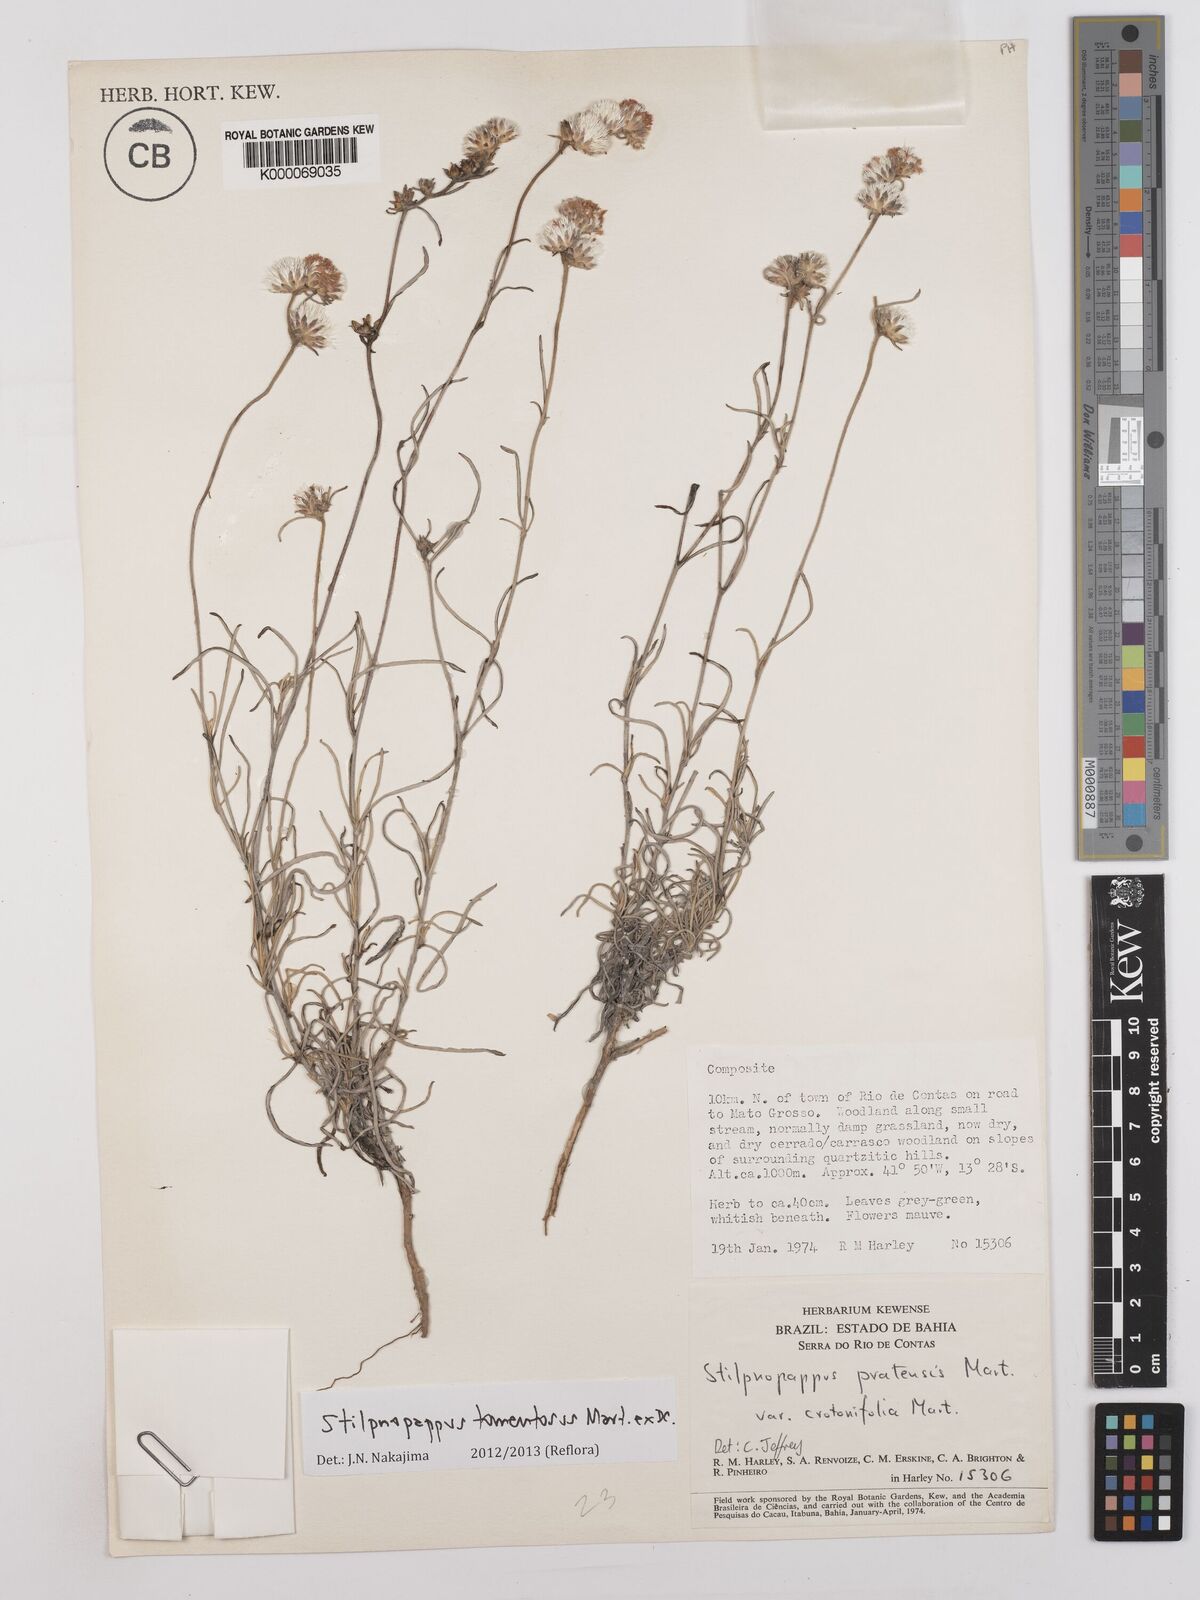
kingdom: Plantae
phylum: Tracheophyta
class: Magnoliopsida
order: Asterales
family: Asteraceae
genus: Stilpnopappus
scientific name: Stilpnopappus tomentosus
